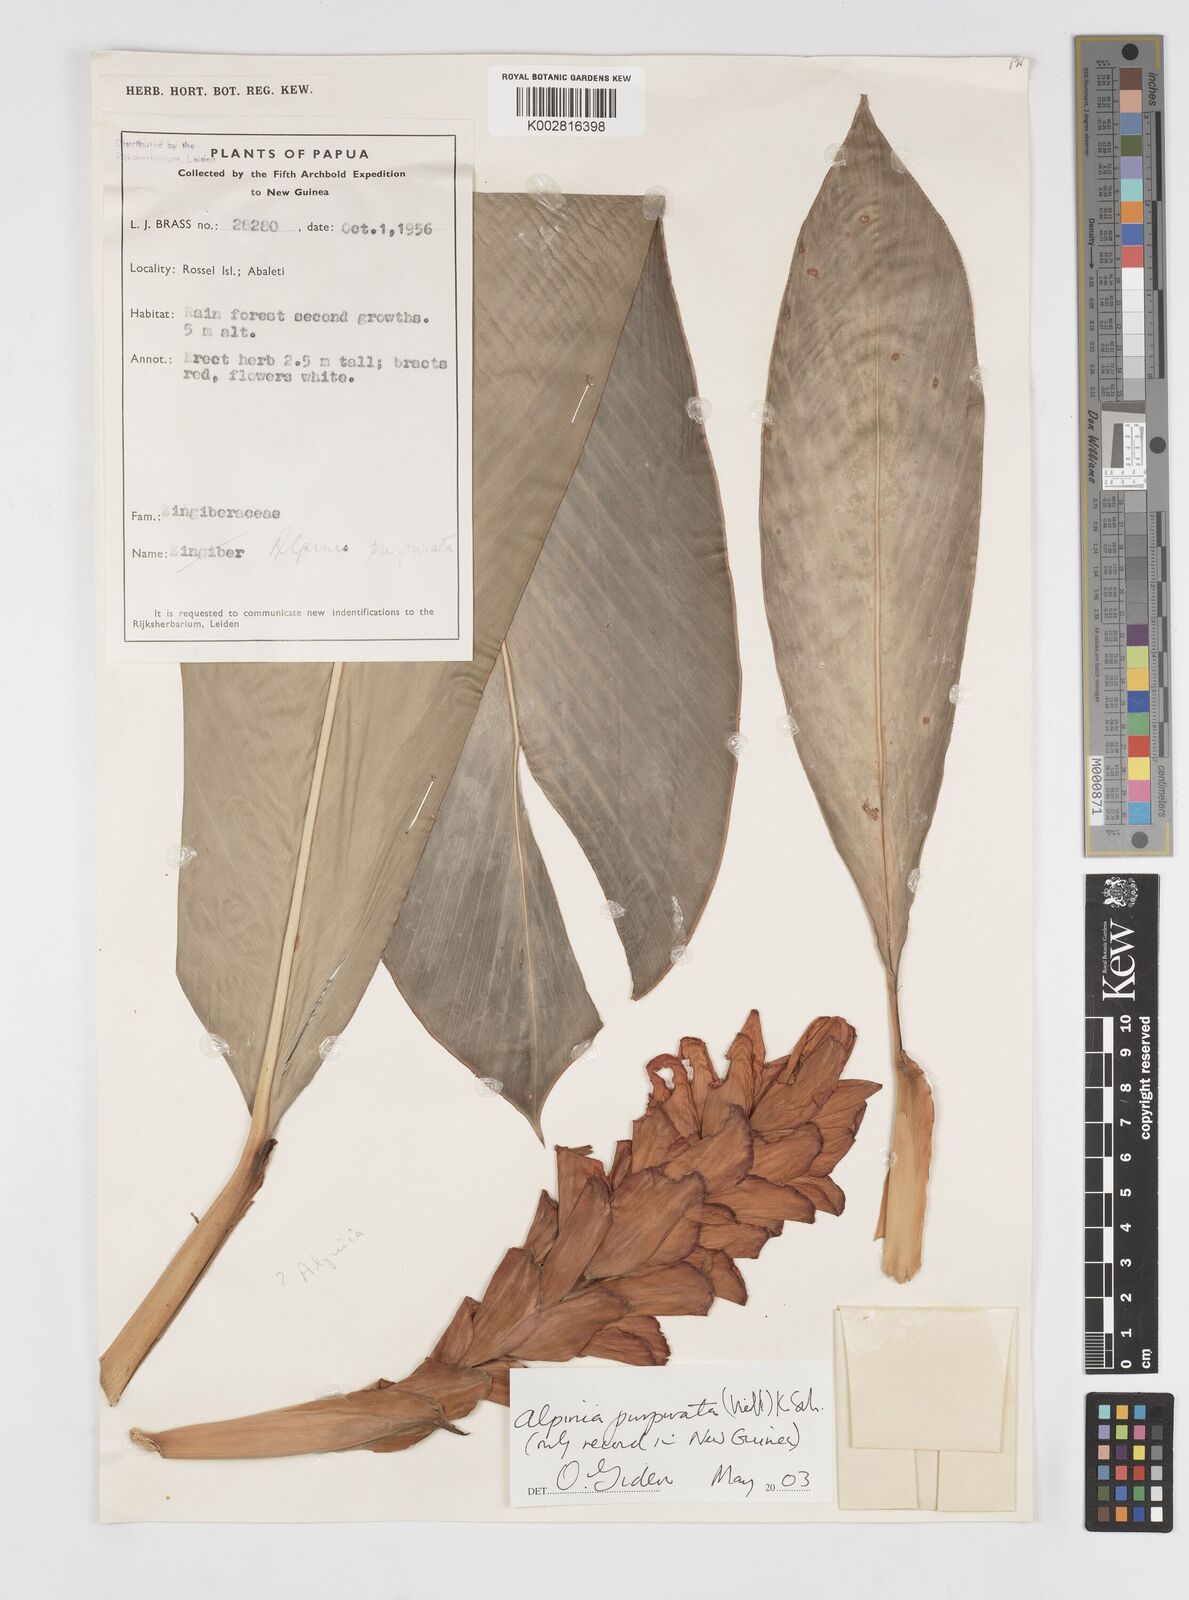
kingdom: Plantae
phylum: Tracheophyta
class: Liliopsida
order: Zingiberales
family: Zingiberaceae
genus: Alpinia
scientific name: Alpinia purpurata
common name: Red ginger
